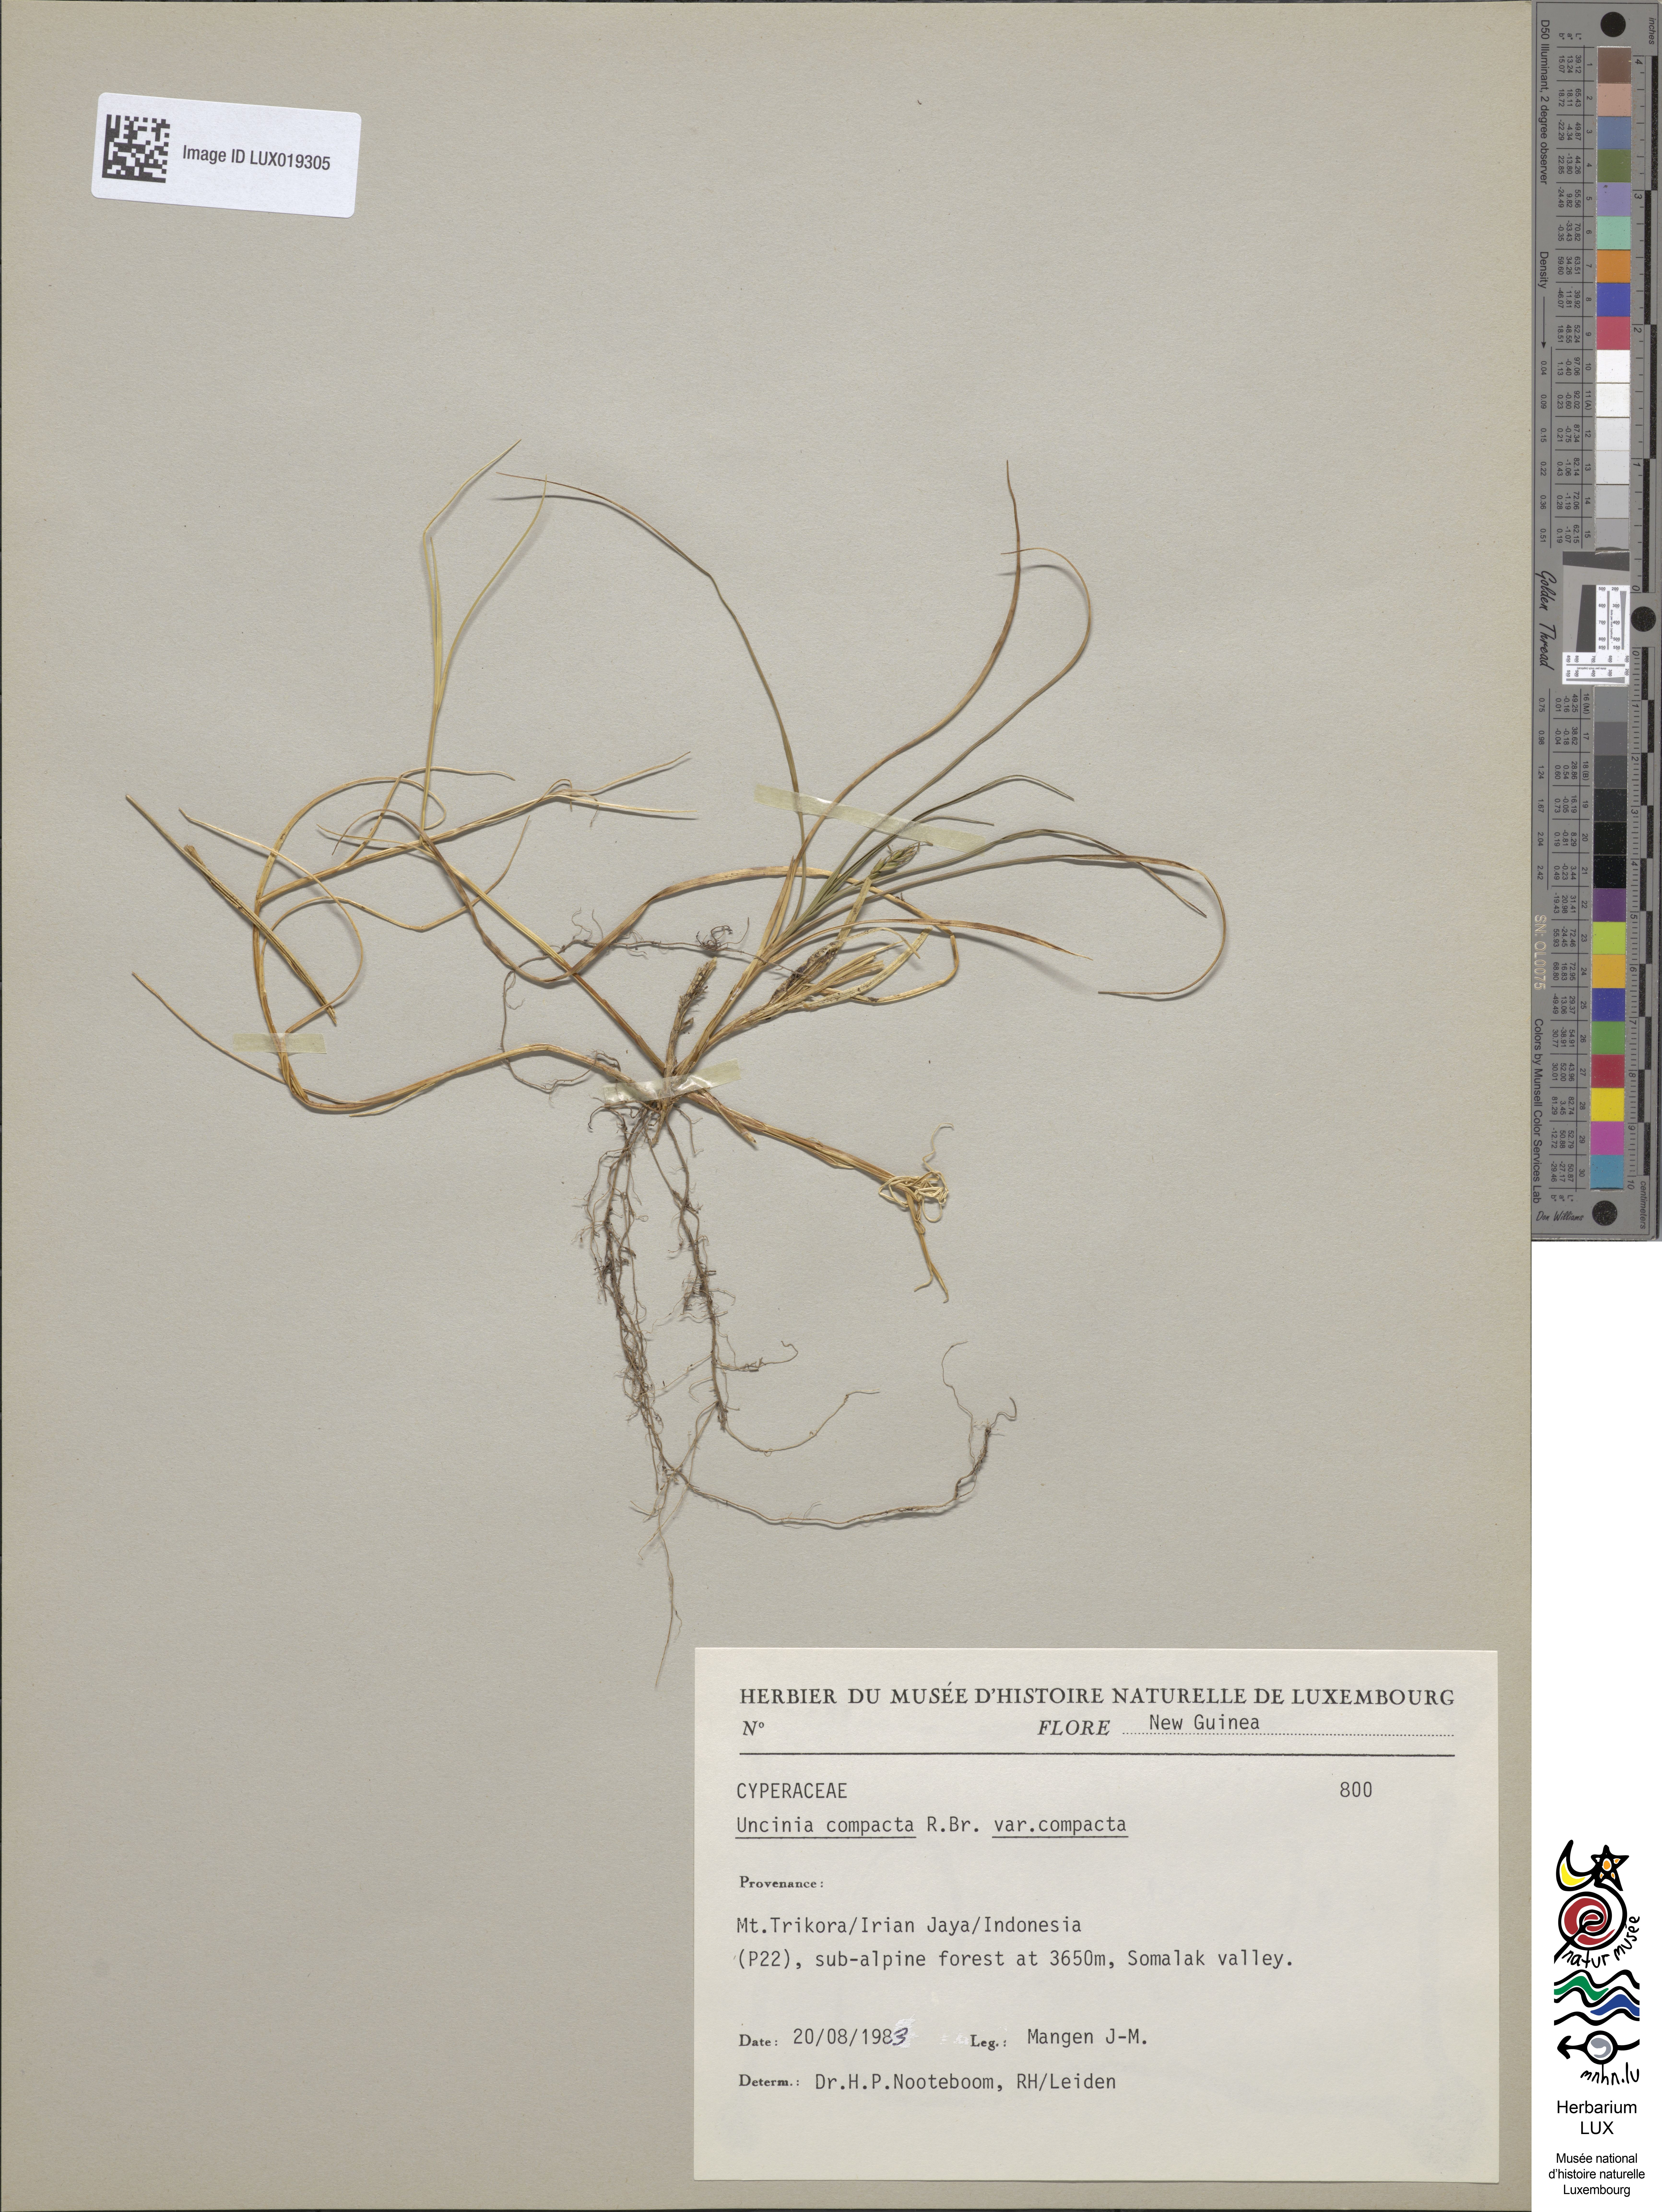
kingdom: Plantae
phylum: Tracheophyta
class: Liliopsida
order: Poales
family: Cyperaceae
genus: Carex
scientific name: Carex austrocompacta
